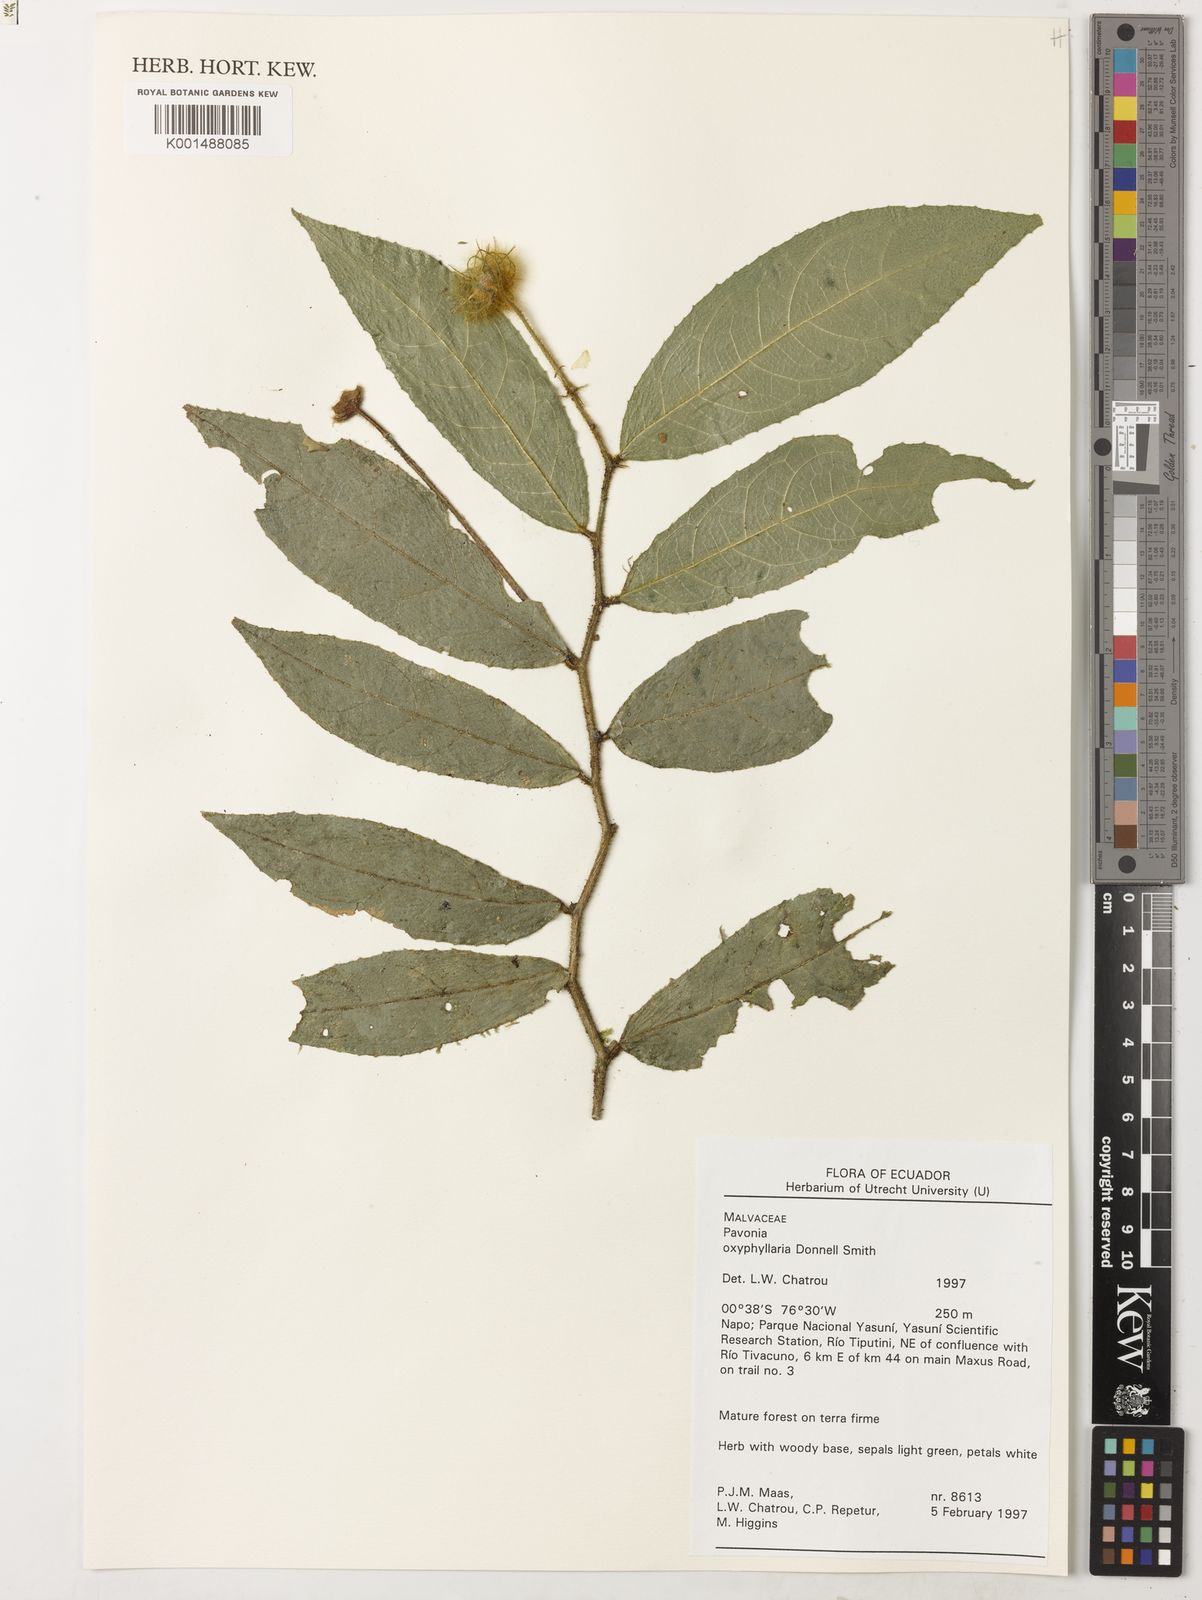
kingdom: Plantae
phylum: Tracheophyta
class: Magnoliopsida
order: Malvales
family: Malvaceae
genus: Pavonia
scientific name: Pavonia oxyphyllaria
